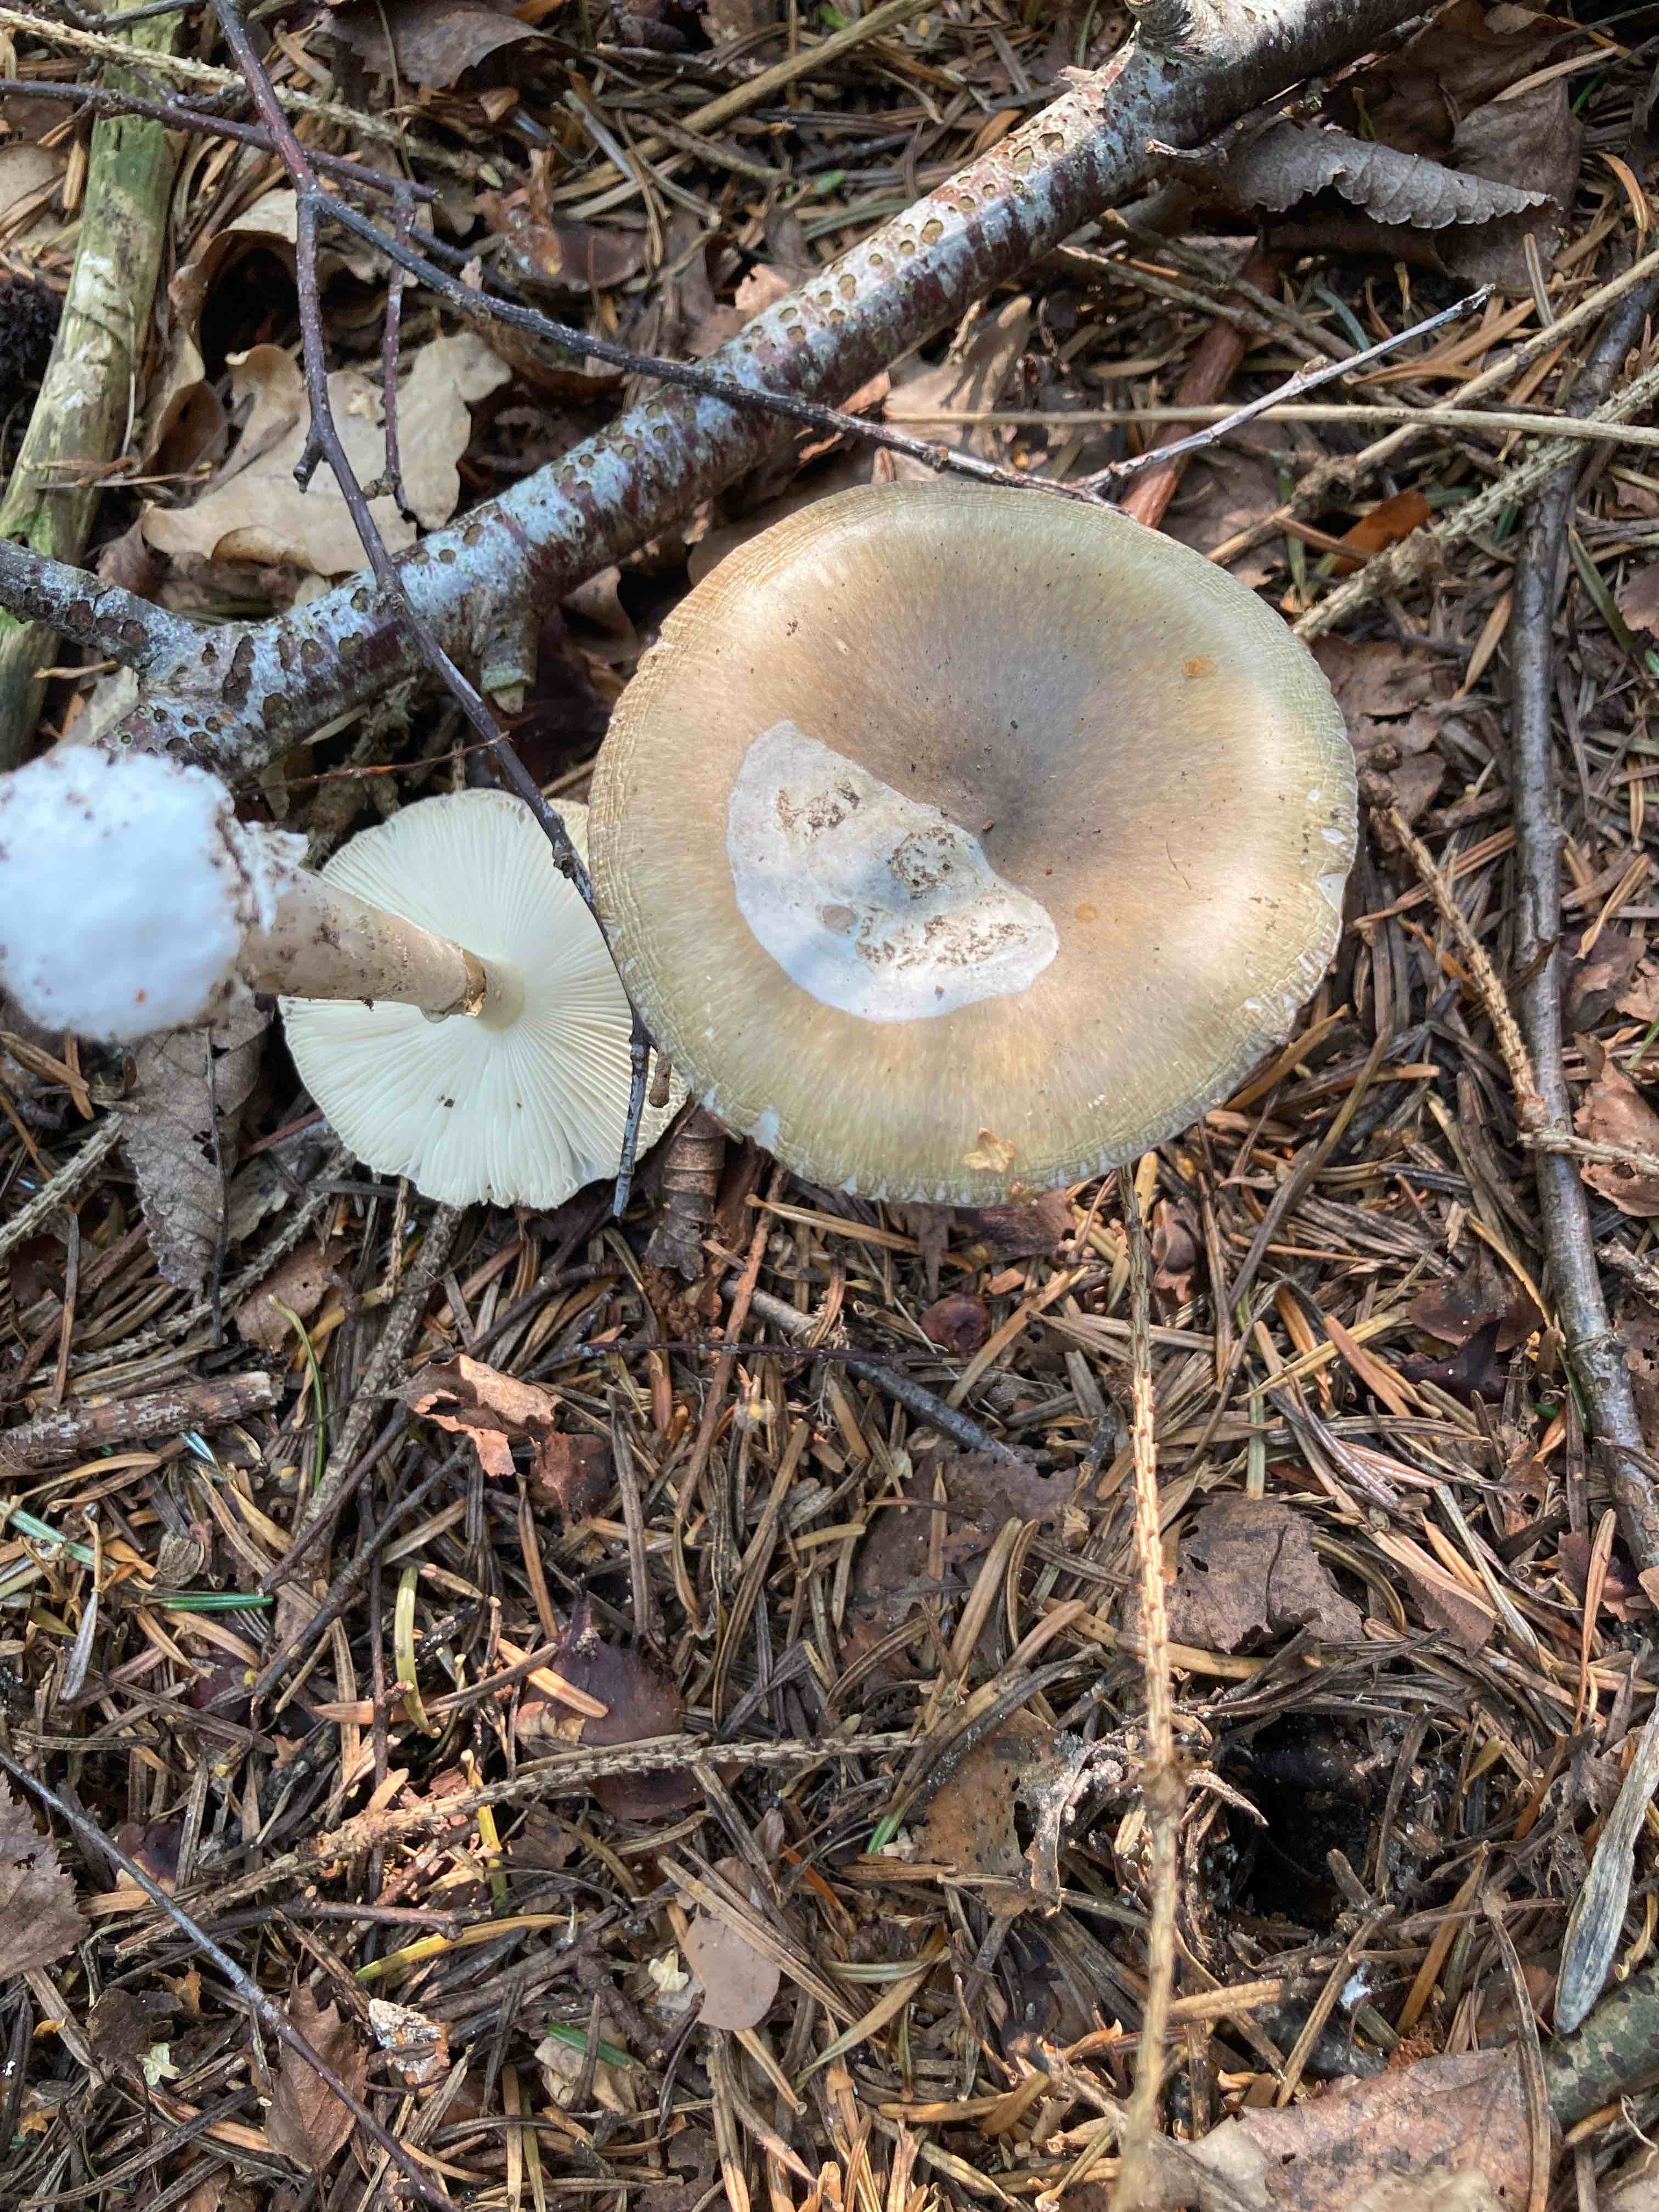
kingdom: Fungi
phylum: Basidiomycota
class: Agaricomycetes
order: Agaricales
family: Amanitaceae
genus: Amanita
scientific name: Amanita
